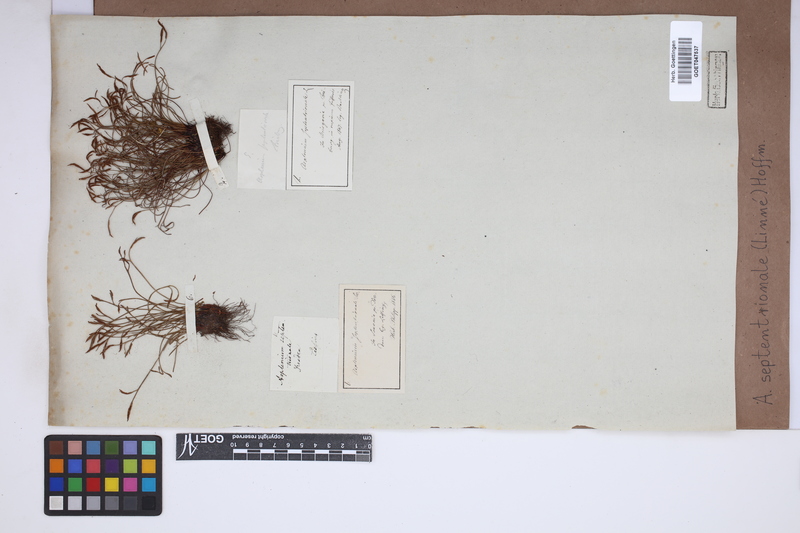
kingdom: Plantae
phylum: Tracheophyta
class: Polypodiopsida
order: Polypodiales
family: Aspleniaceae
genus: Asplenium
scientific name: Asplenium septentrionale
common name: Forked spleenwort
